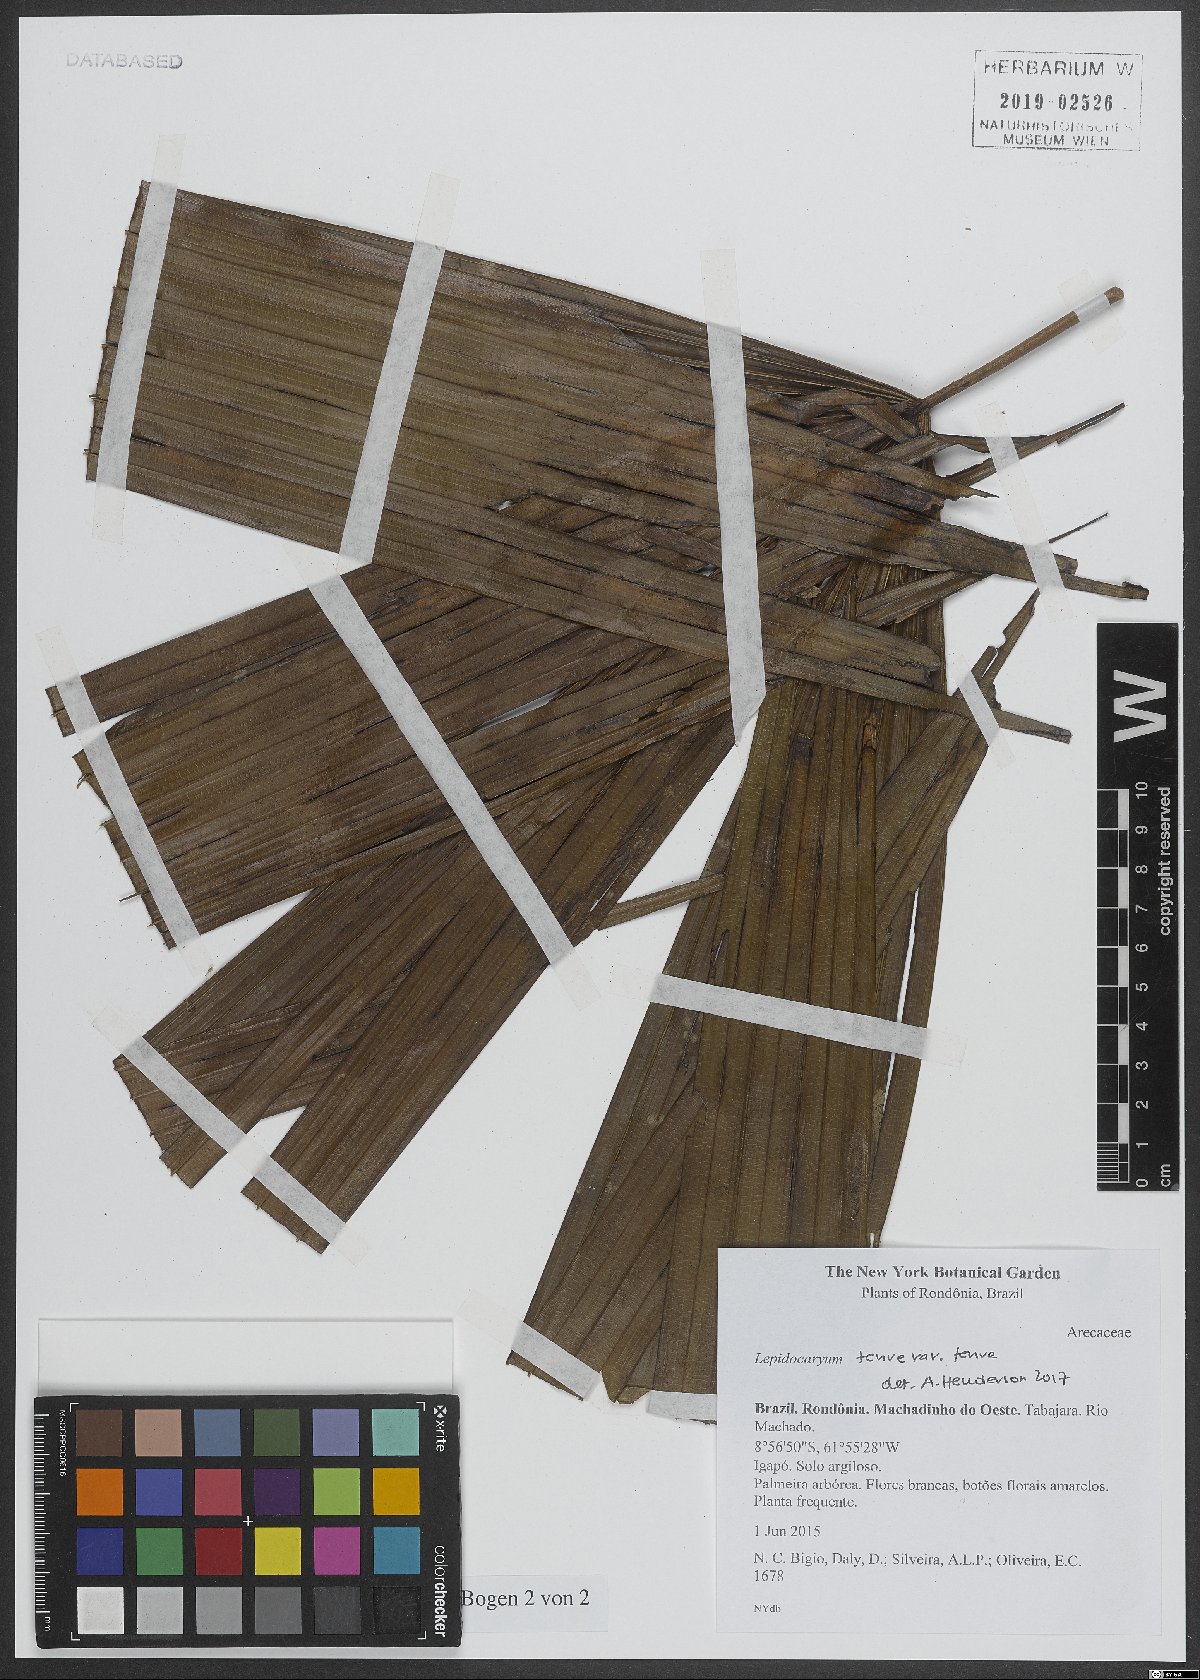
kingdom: Plantae
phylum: Tracheophyta
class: Liliopsida
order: Arecales
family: Arecaceae
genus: Lepidocaryum
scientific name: Lepidocaryum tenue
